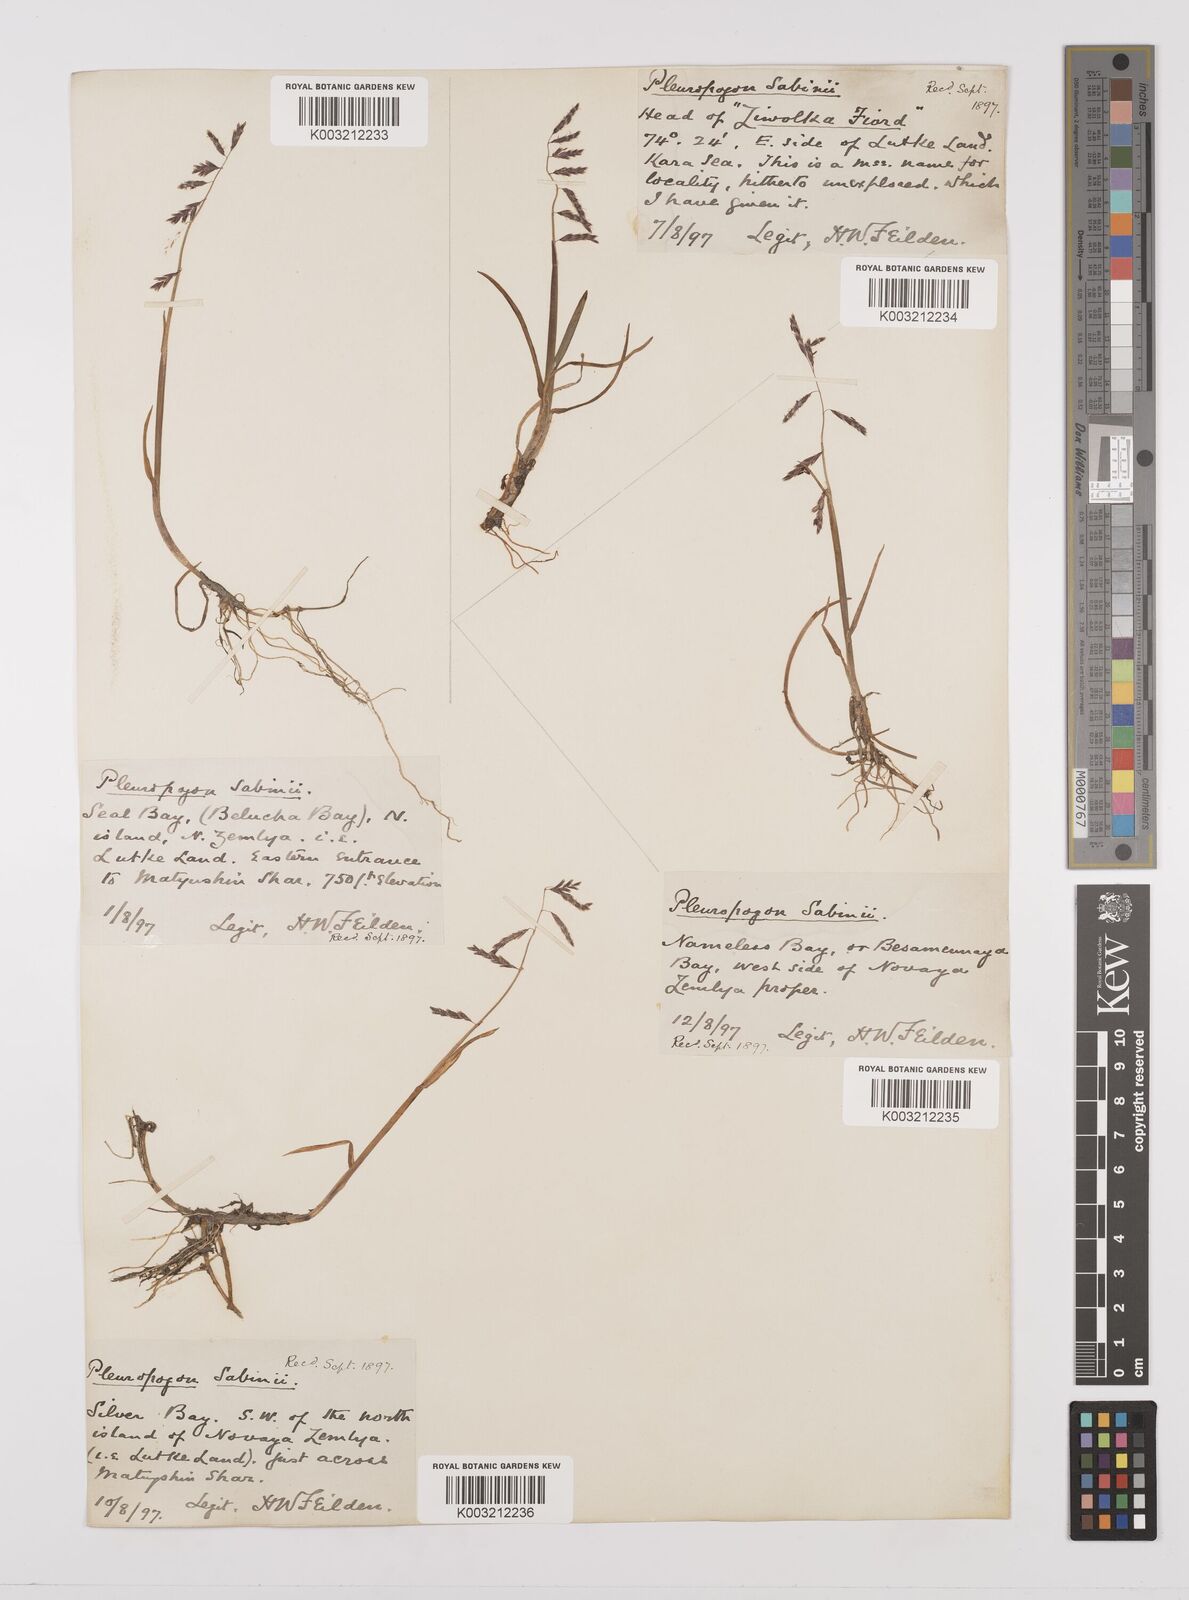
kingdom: Plantae
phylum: Tracheophyta
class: Liliopsida
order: Poales
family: Poaceae
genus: Pleuropogon
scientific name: Pleuropogon sabinei
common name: Sabine's false semaphoregrass
